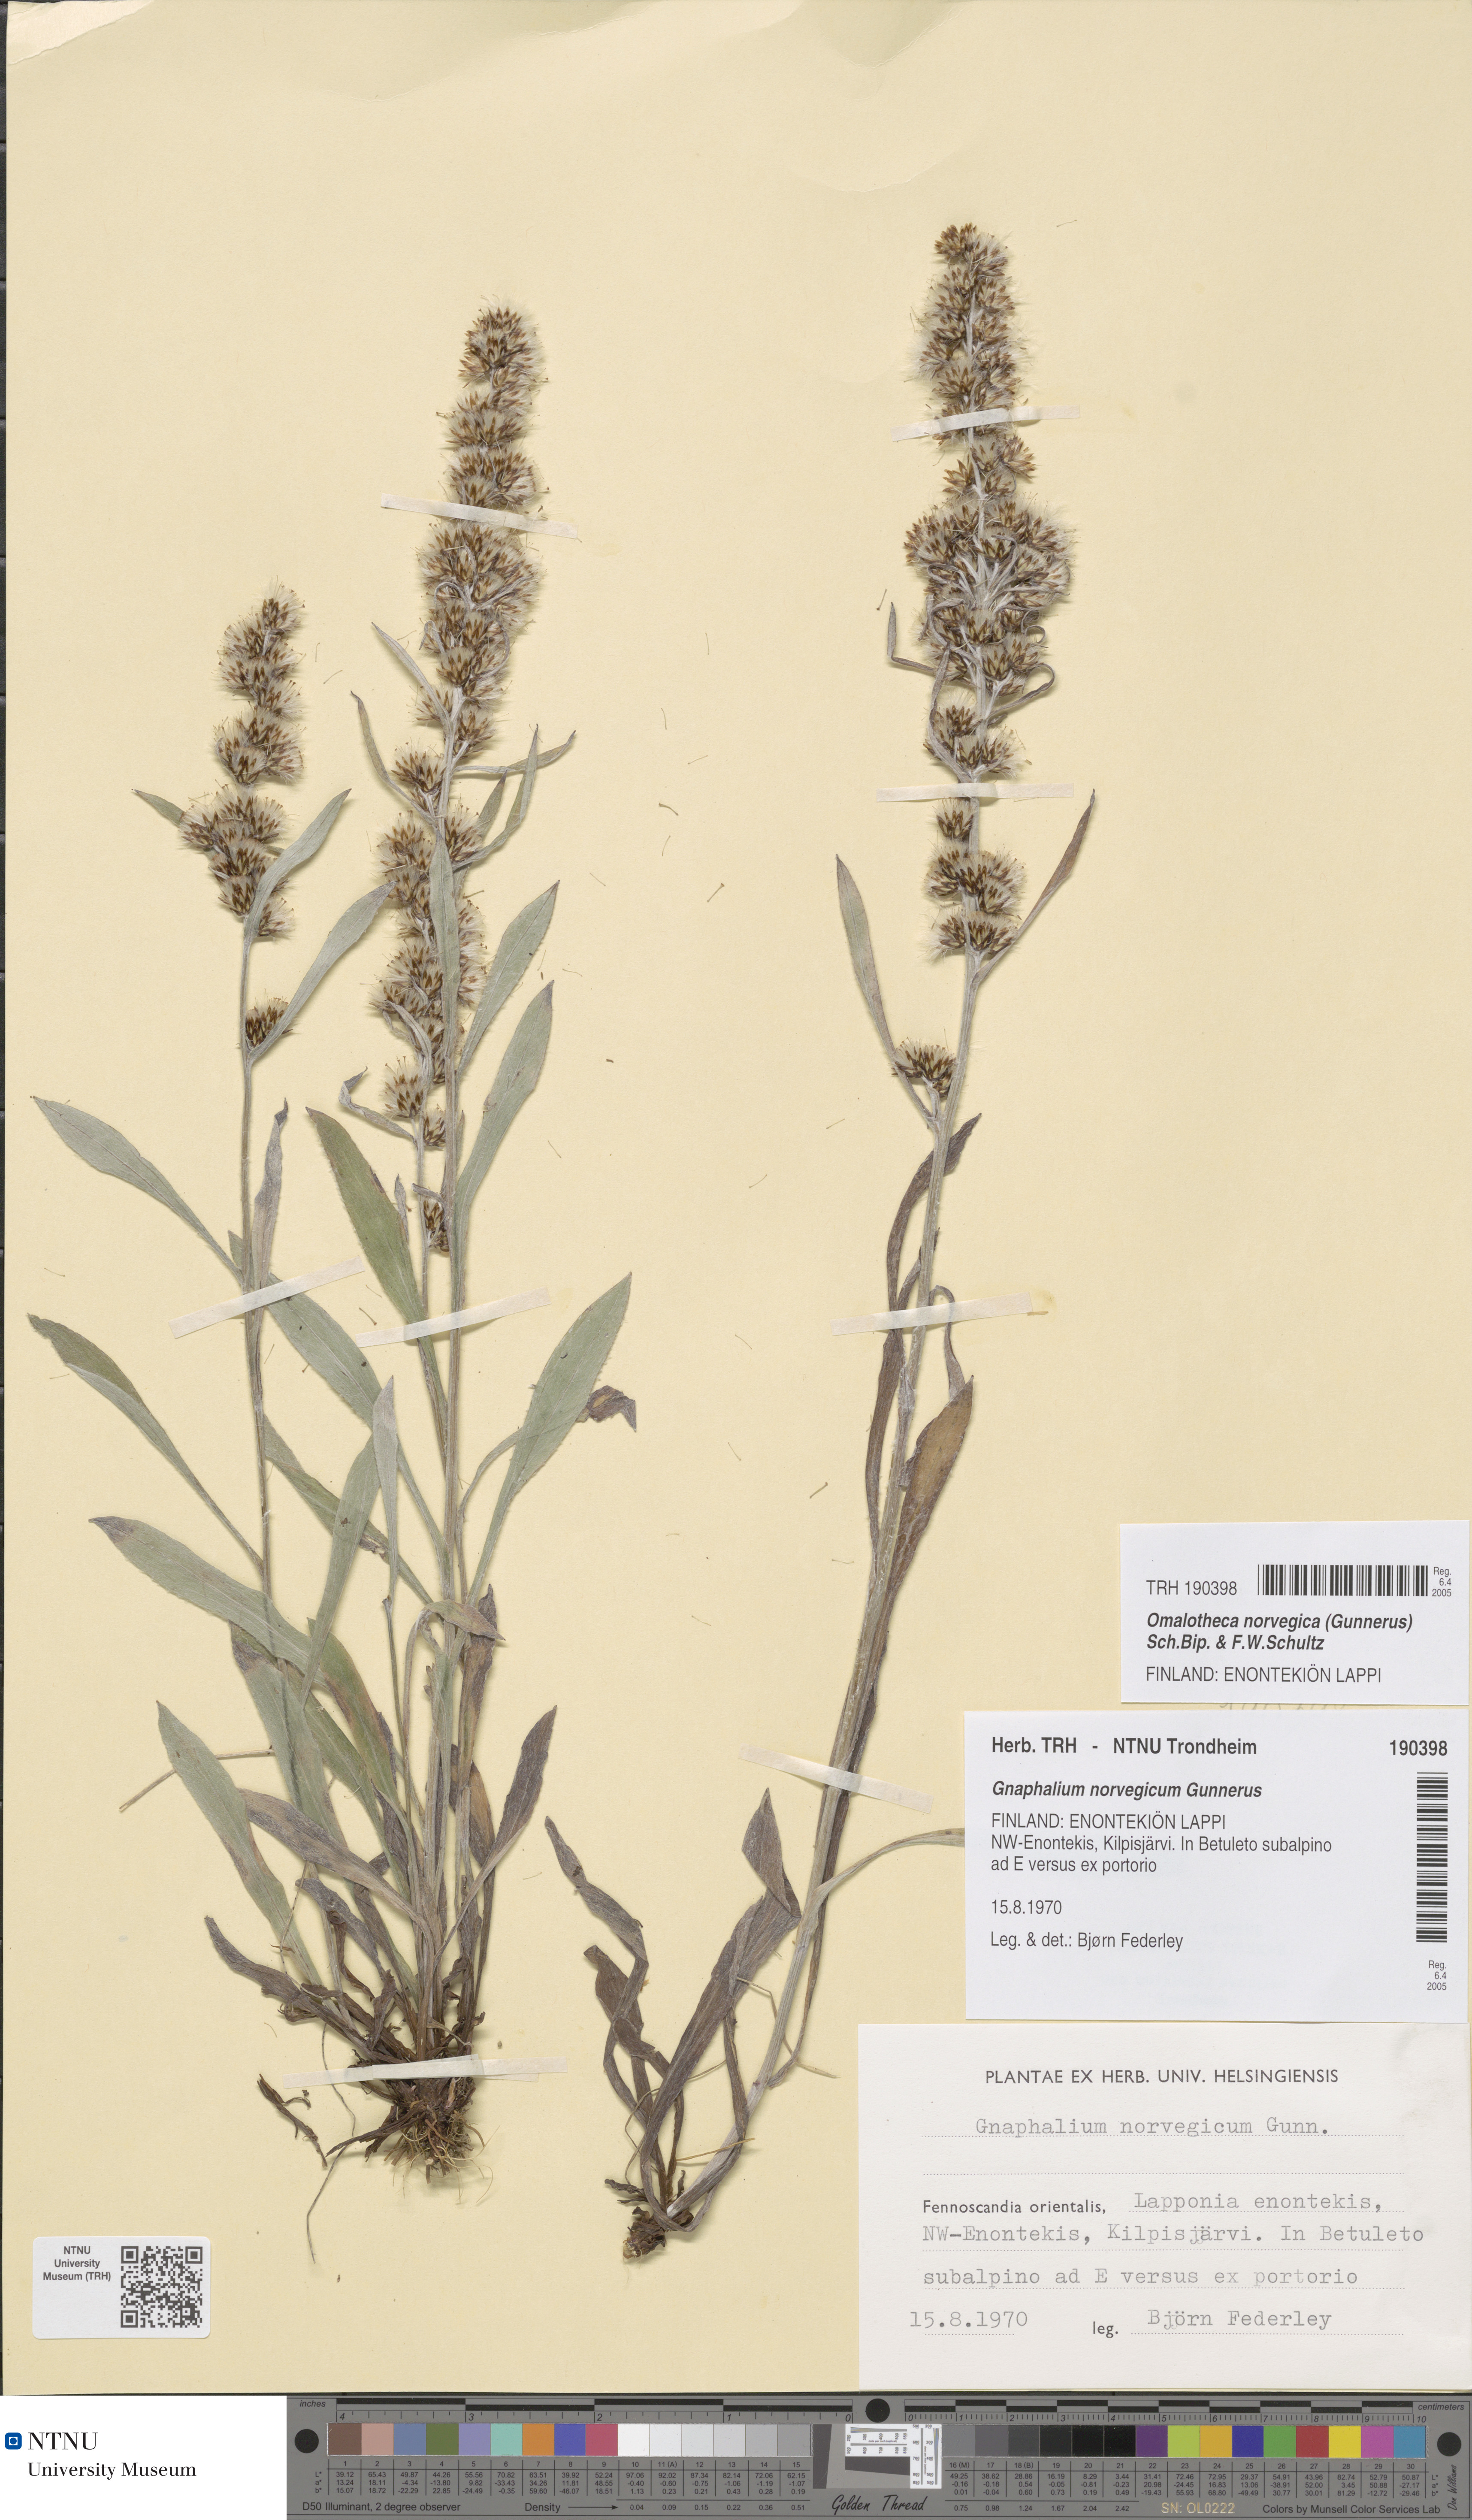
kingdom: Plantae
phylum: Tracheophyta
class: Magnoliopsida
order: Asterales
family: Asteraceae
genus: Omalotheca
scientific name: Omalotheca norvegica
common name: Norwegian arctic-cudweed
